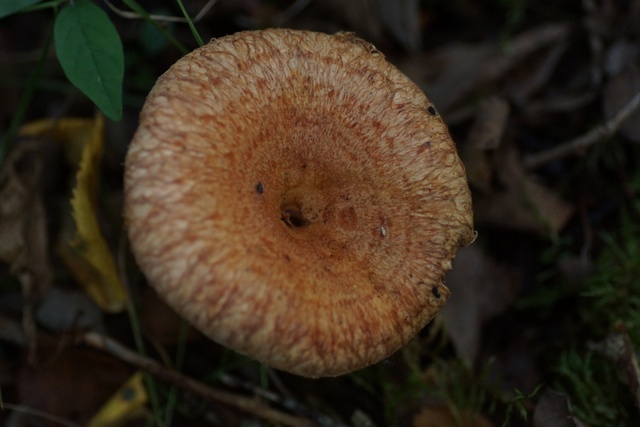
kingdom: Fungi
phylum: Basidiomycota
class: Agaricomycetes
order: Russulales
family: Russulaceae
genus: Lactarius
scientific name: Lactarius torminosus
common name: skægget mælkehat
